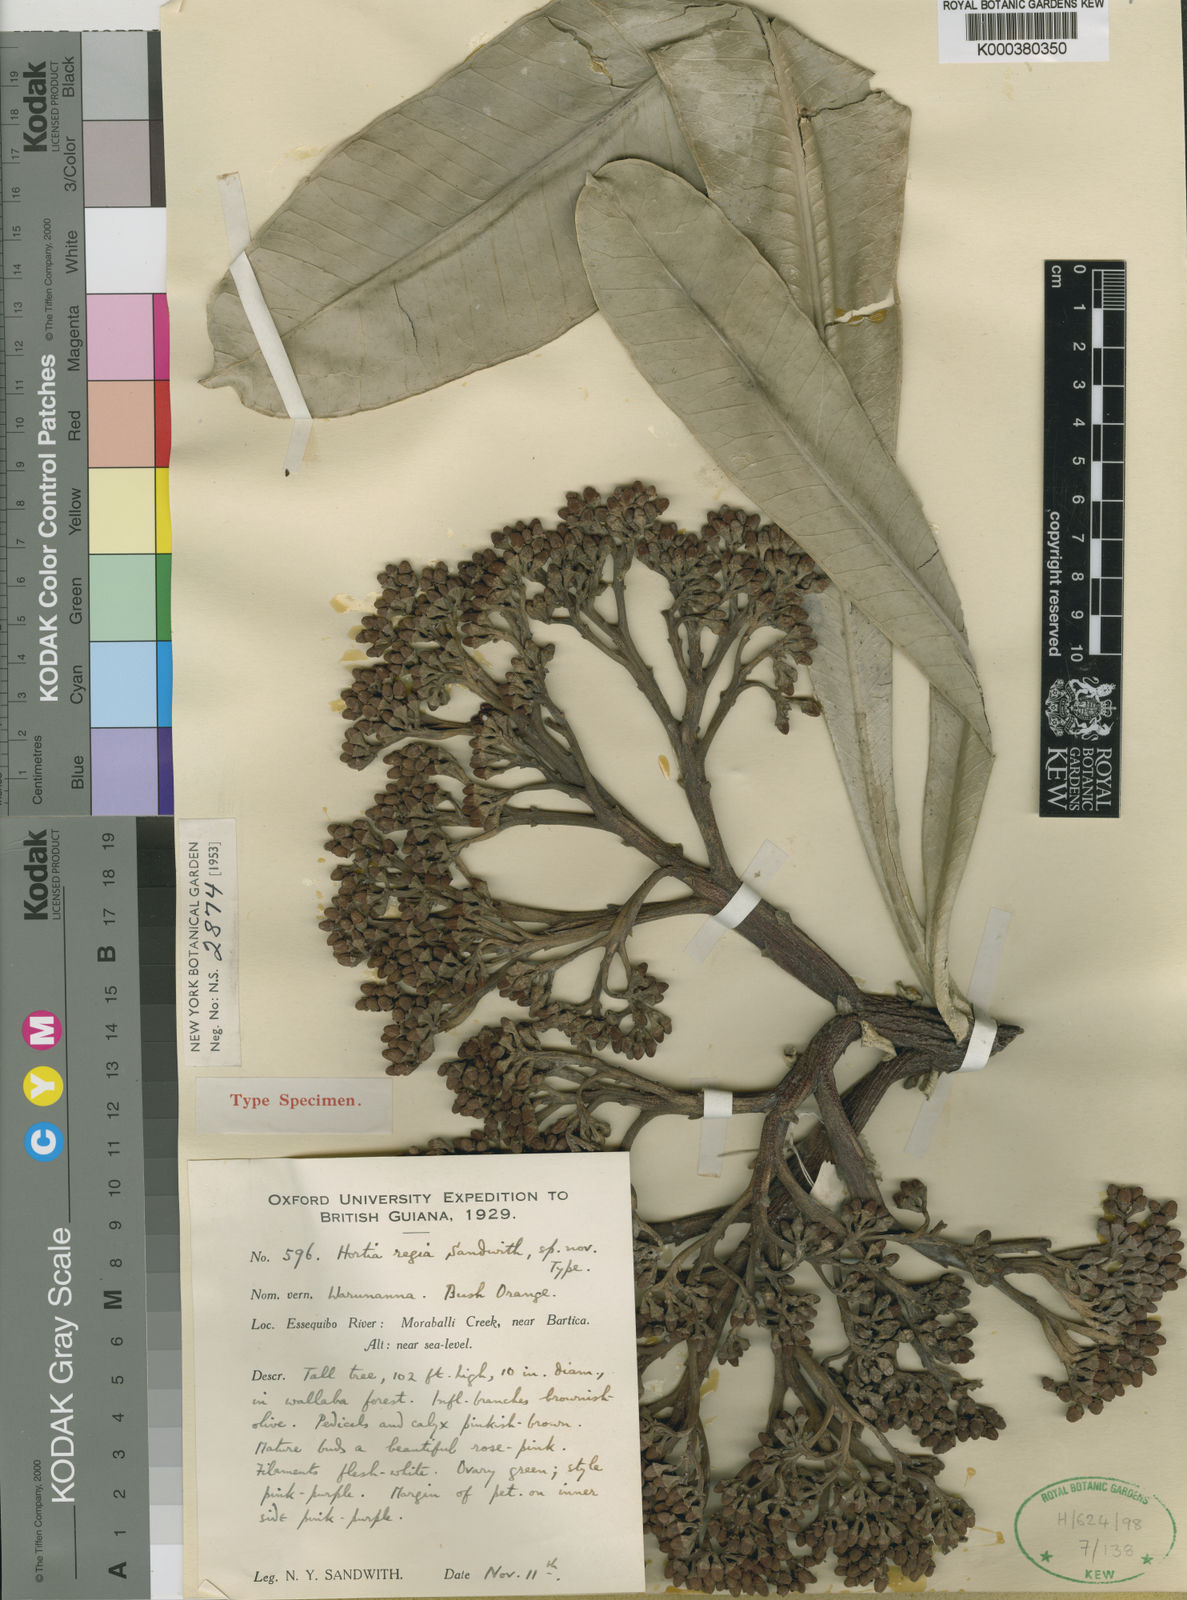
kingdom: Plantae
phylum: Tracheophyta
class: Magnoliopsida
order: Sapindales
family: Rutaceae
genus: Hortia
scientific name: Hortia regia
